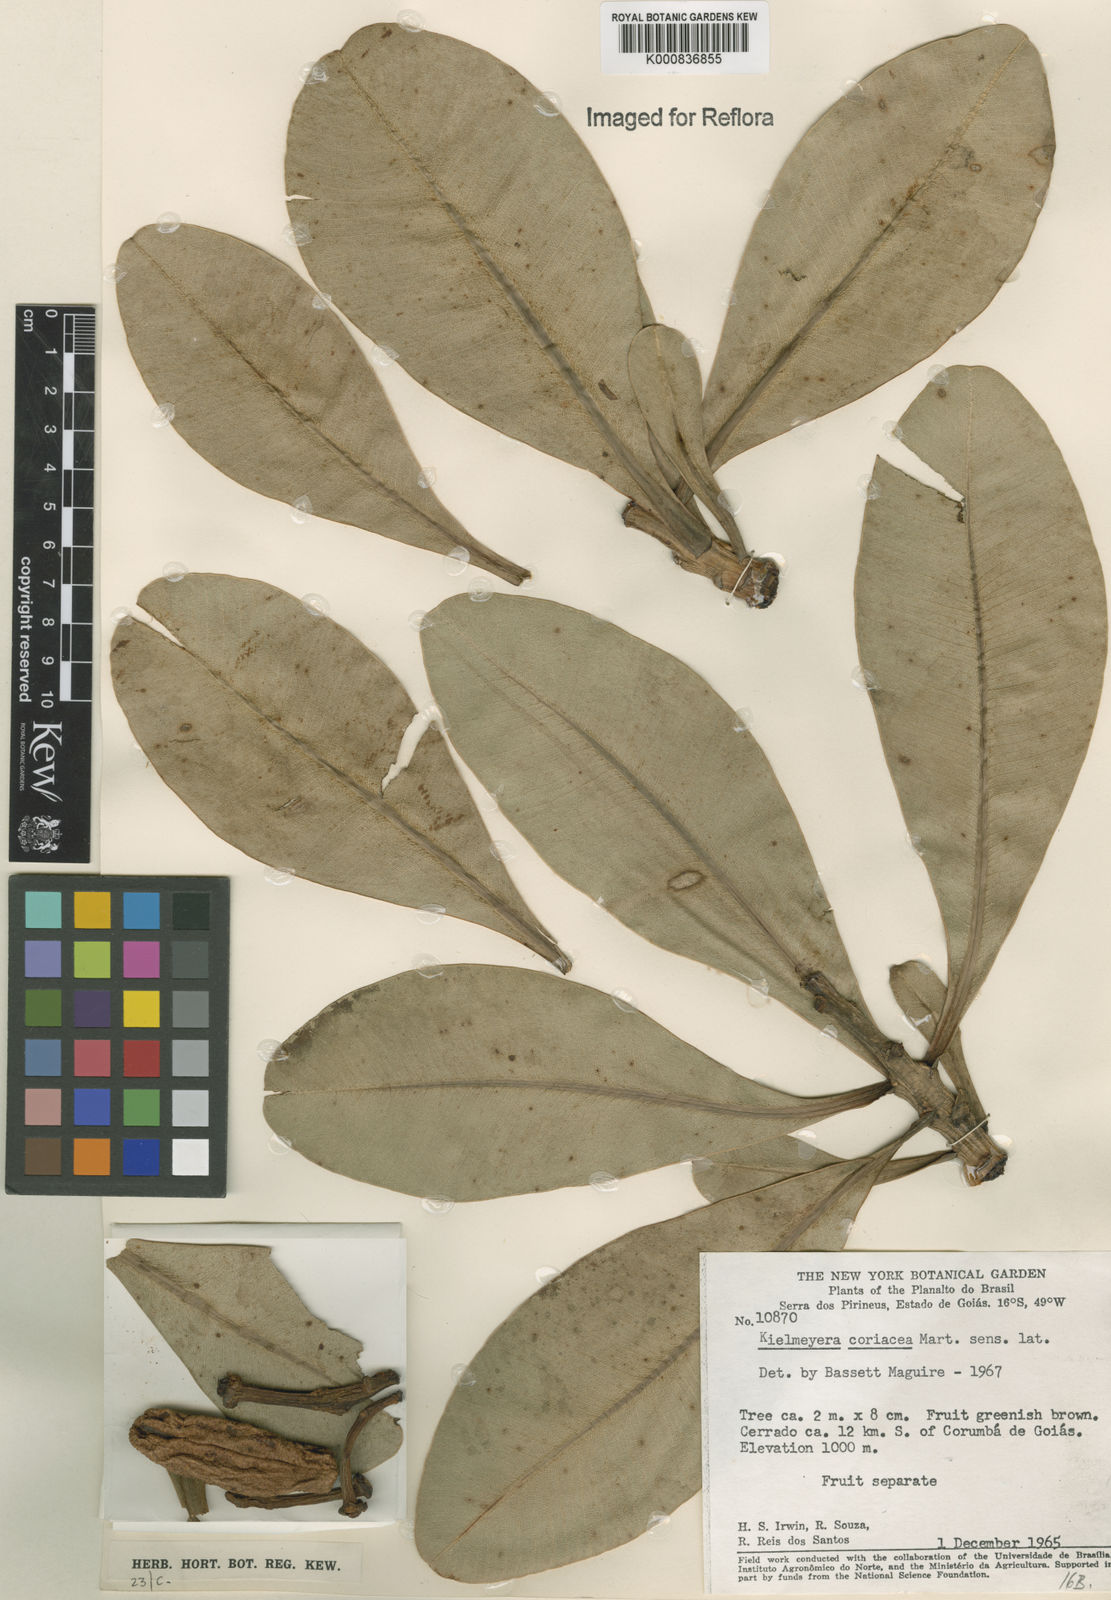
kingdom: Plantae
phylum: Tracheophyta
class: Magnoliopsida
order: Malpighiales
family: Calophyllaceae
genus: Kielmeyera
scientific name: Kielmeyera coriacea
